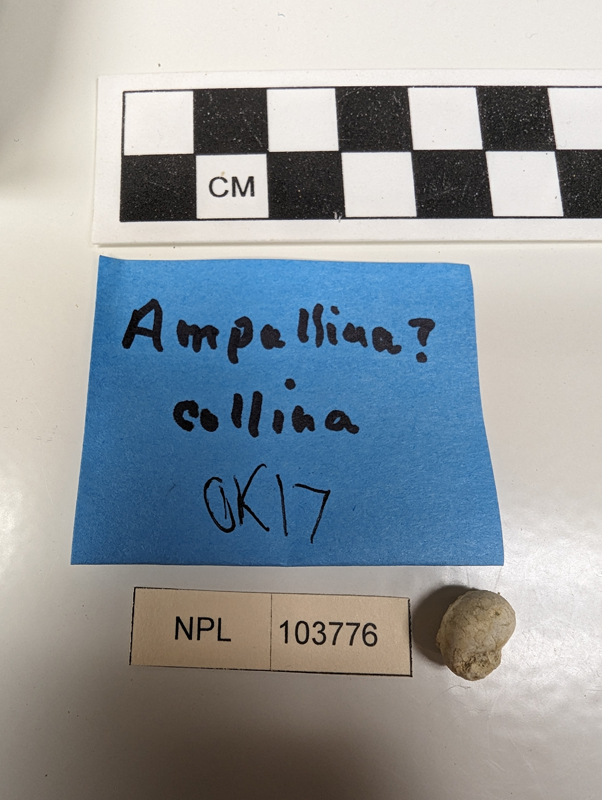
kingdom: Animalia
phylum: Mollusca
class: Gastropoda
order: Architaenioglossa
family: Ampullinidae
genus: Crommium
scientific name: Crommium cepaciforme
